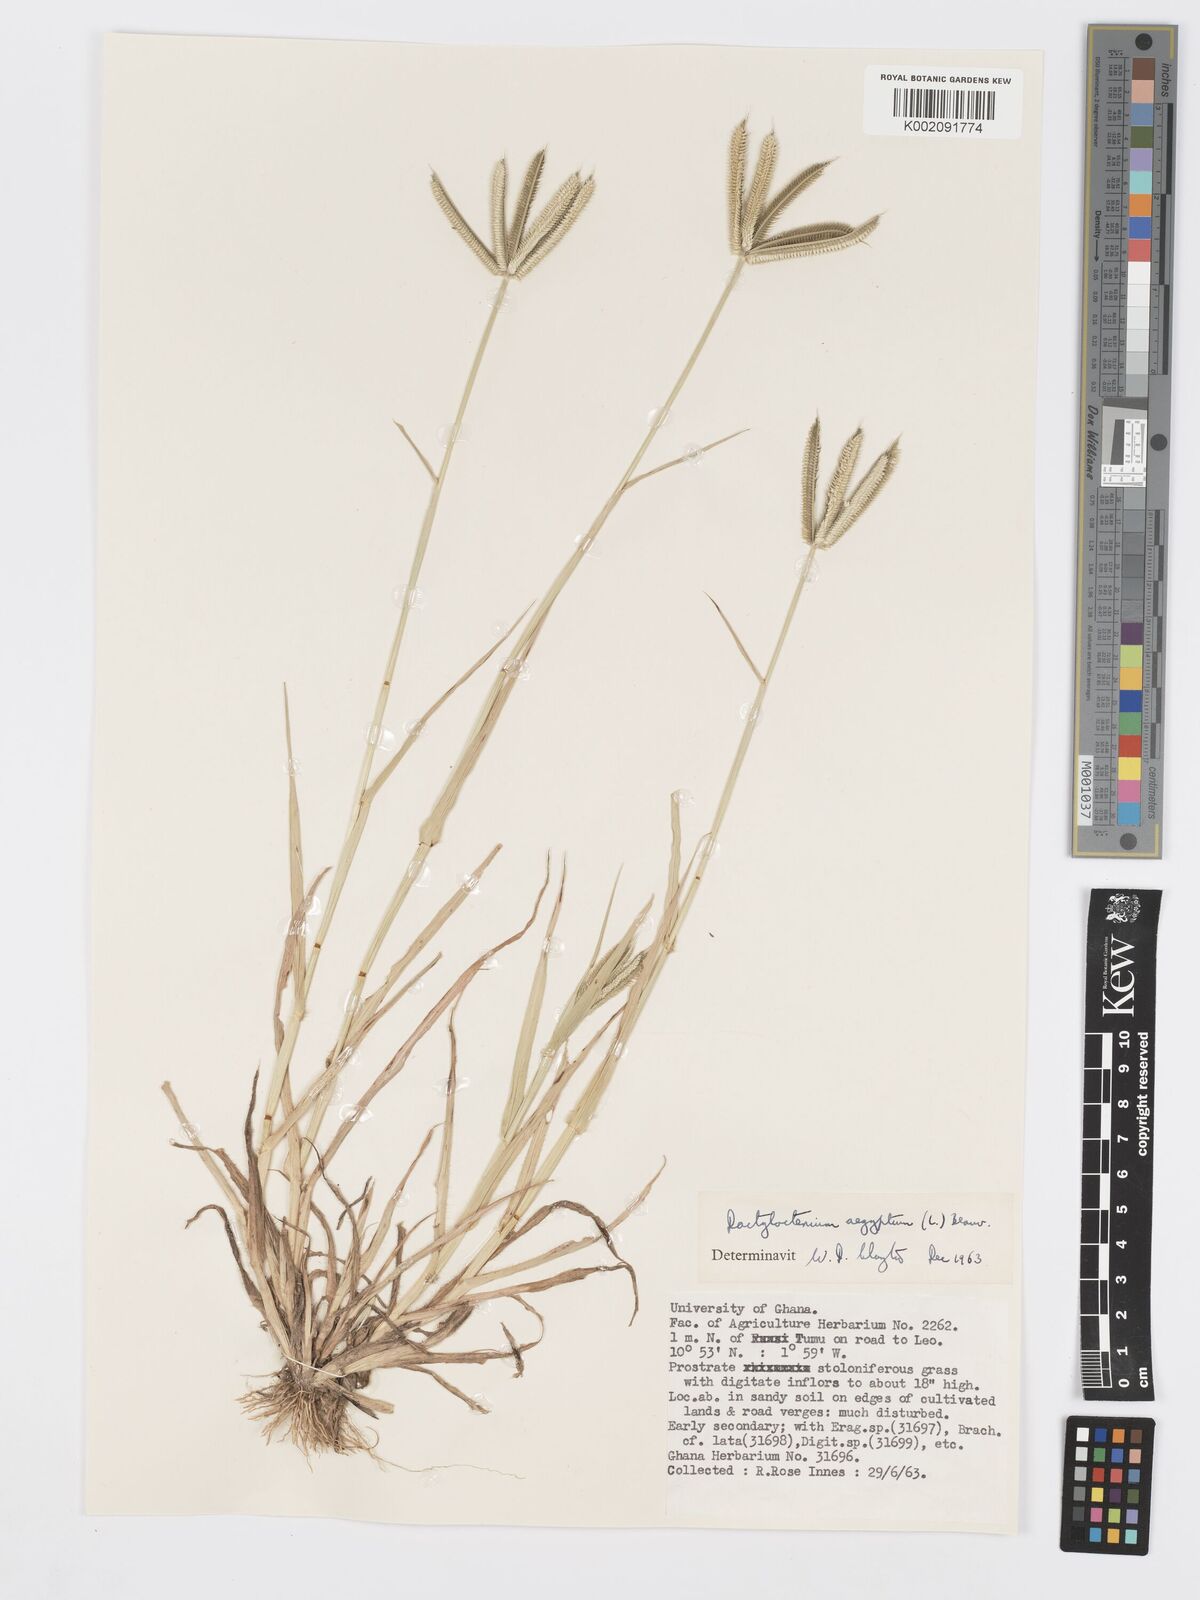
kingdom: Plantae
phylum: Tracheophyta
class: Liliopsida
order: Poales
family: Poaceae
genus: Dactyloctenium
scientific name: Dactyloctenium aegyptium
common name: Egyptian grass
